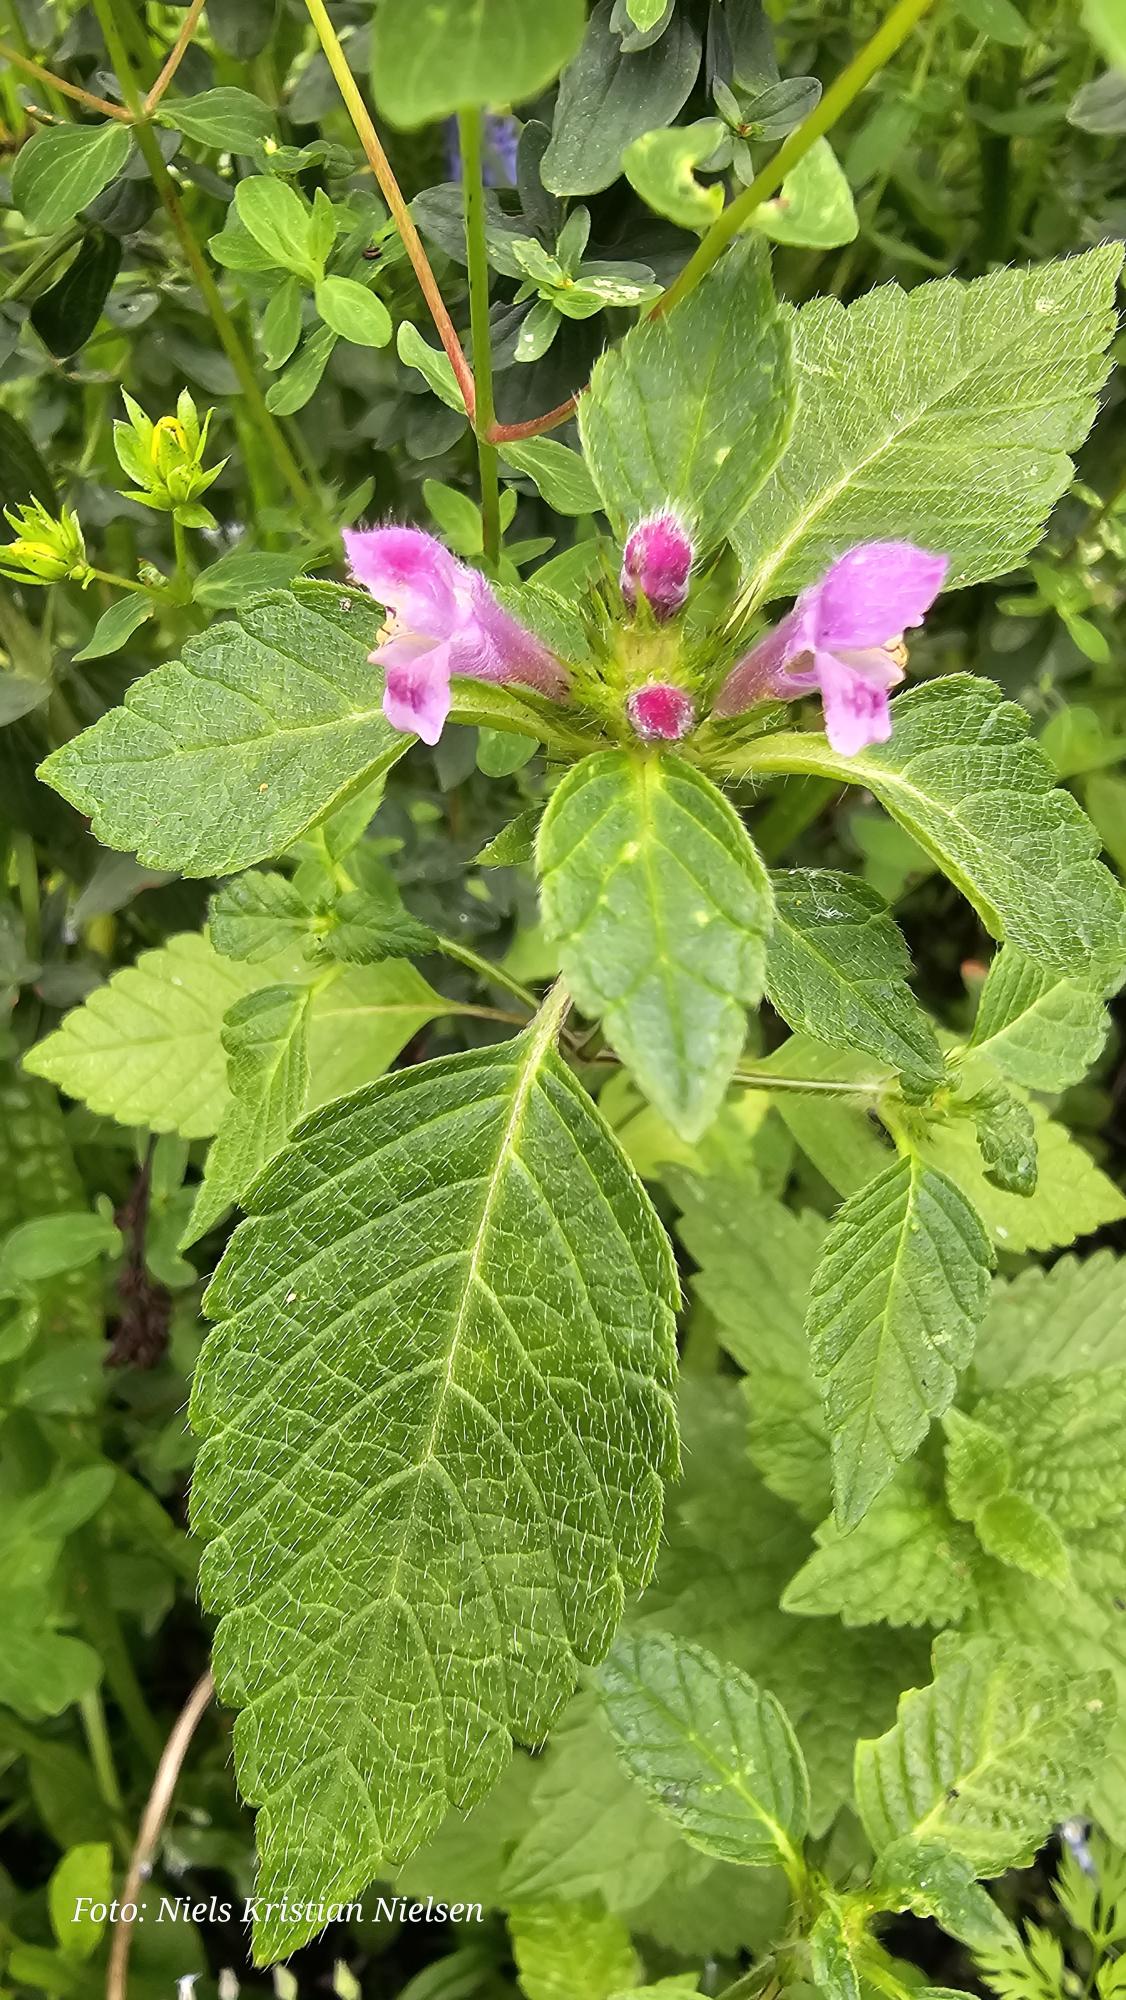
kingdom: Plantae
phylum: Tracheophyta
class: Magnoliopsida
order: Lamiales
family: Lamiaceae
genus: Galeopsis
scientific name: Galeopsis tetrahit
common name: Almindelig hanekro
